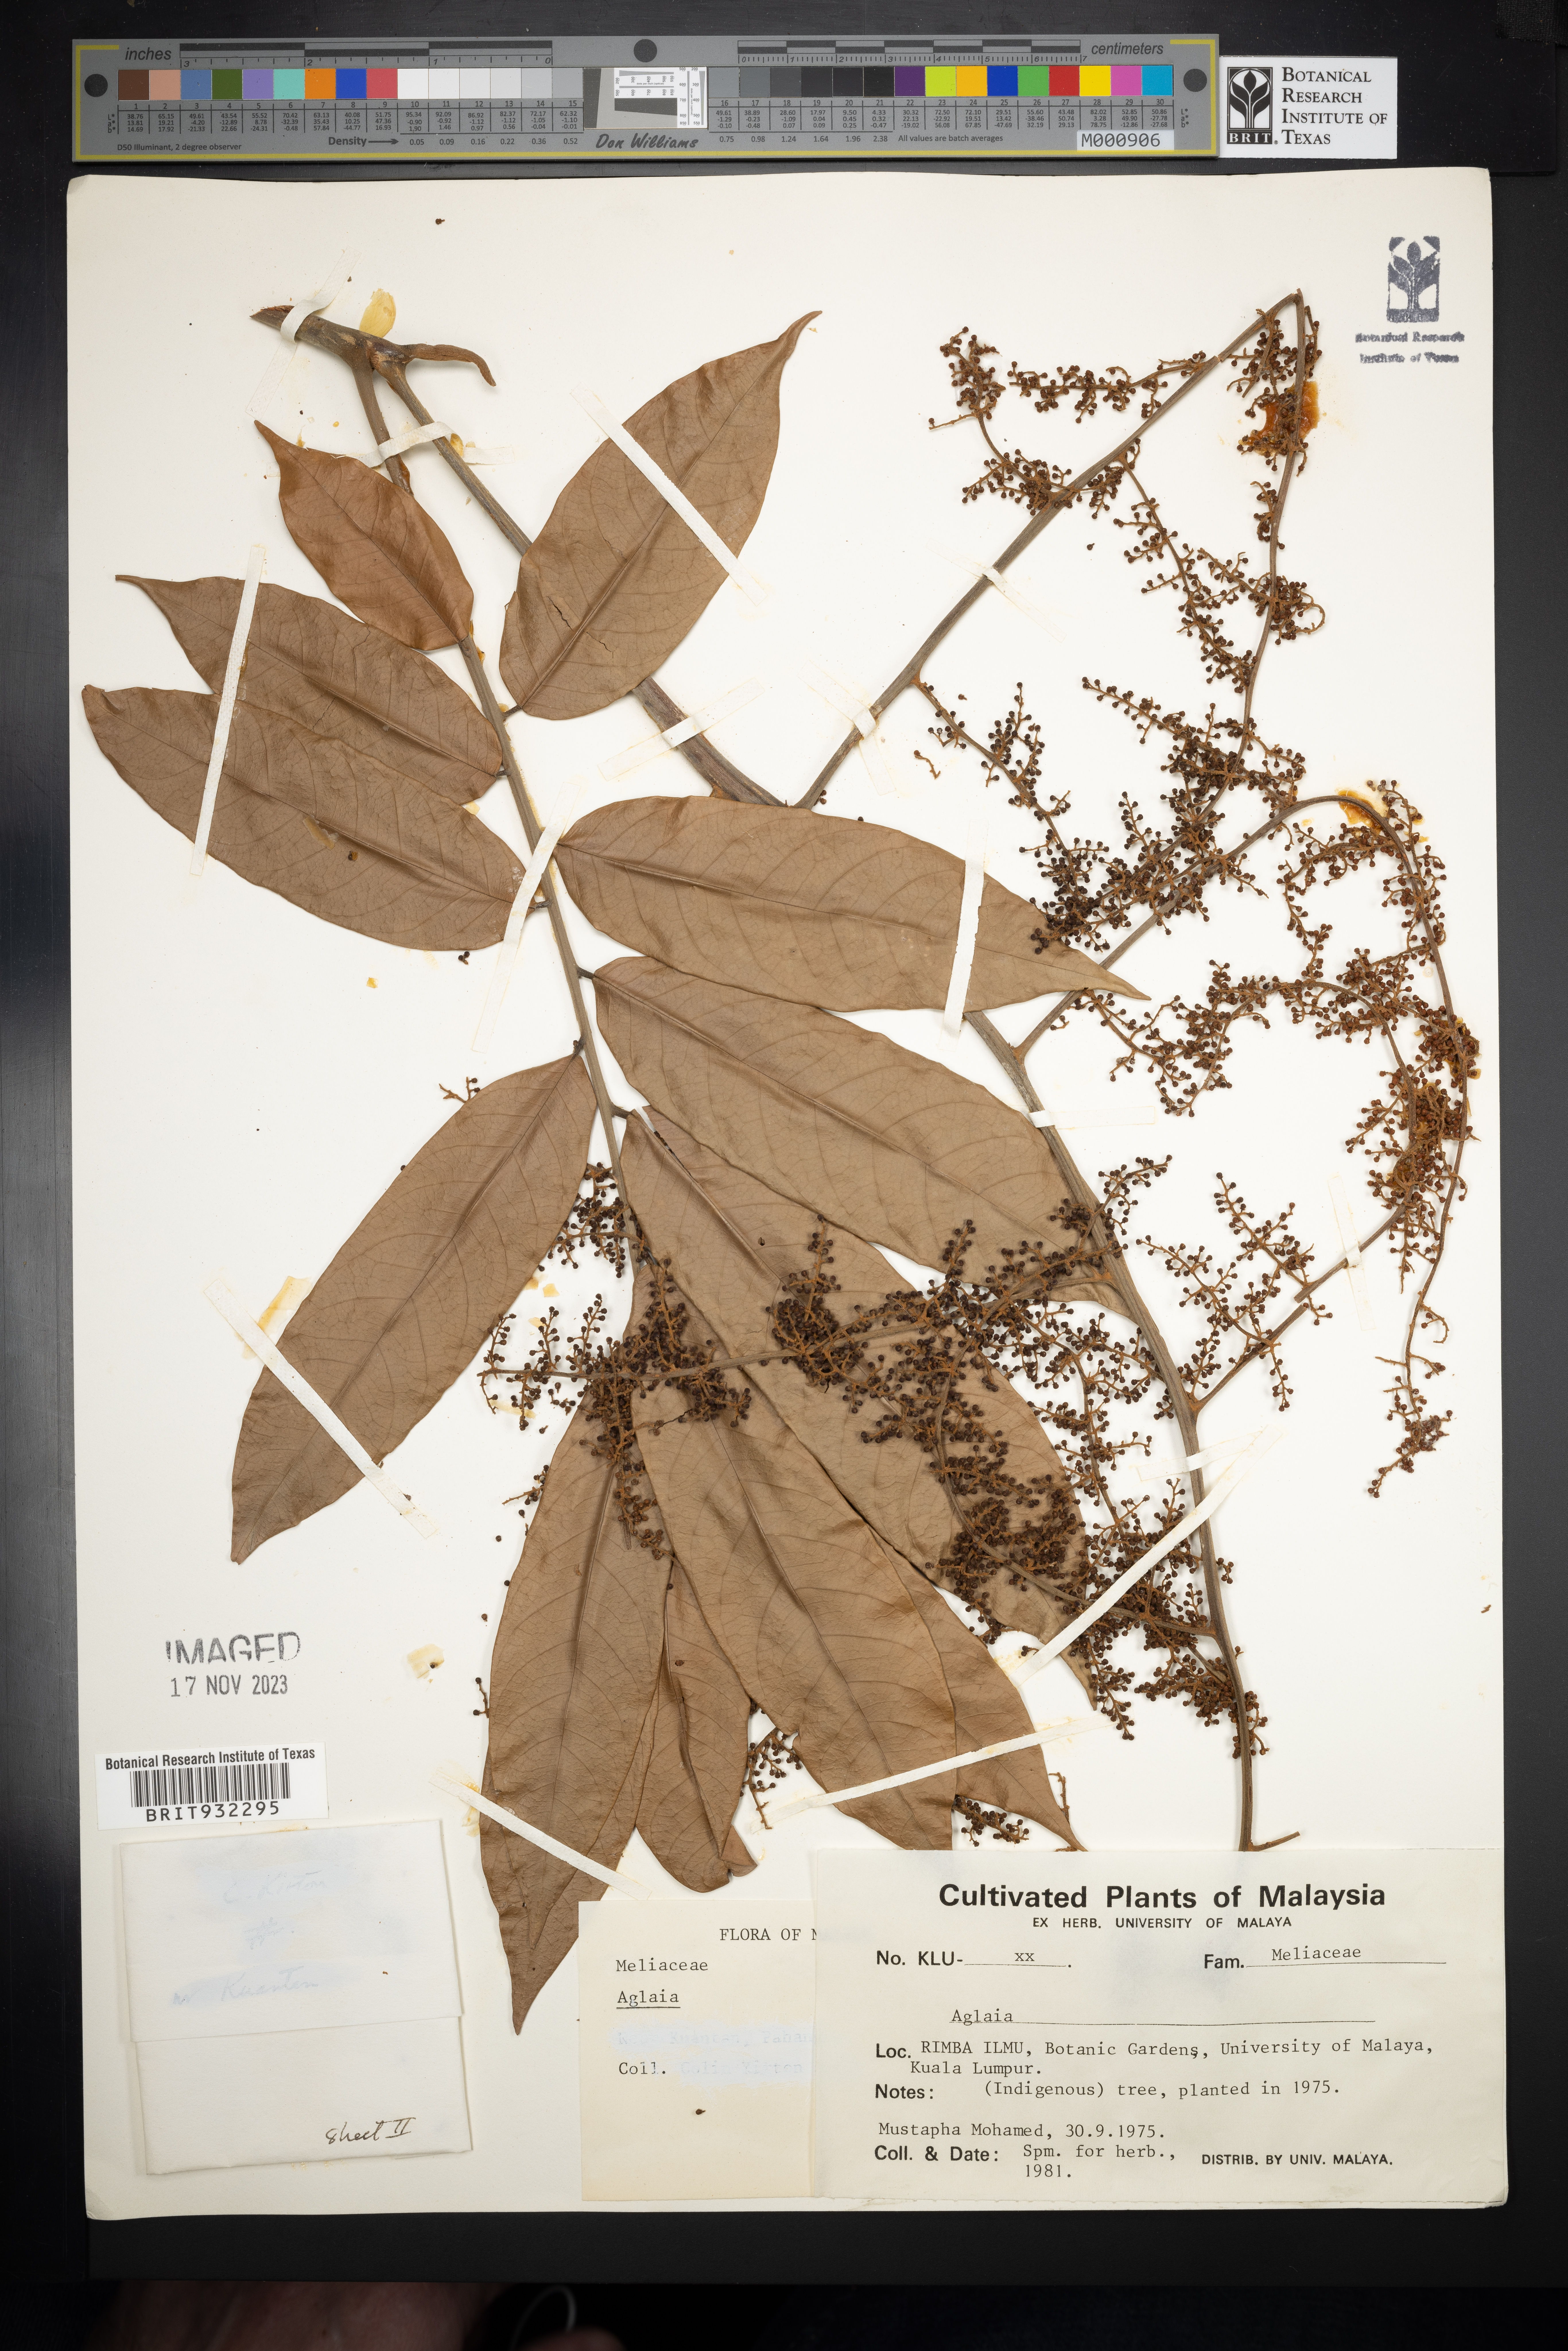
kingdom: Plantae
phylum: Tracheophyta
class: Magnoliopsida
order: Sapindales
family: Meliaceae
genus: Aglaia
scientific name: Aglaia
